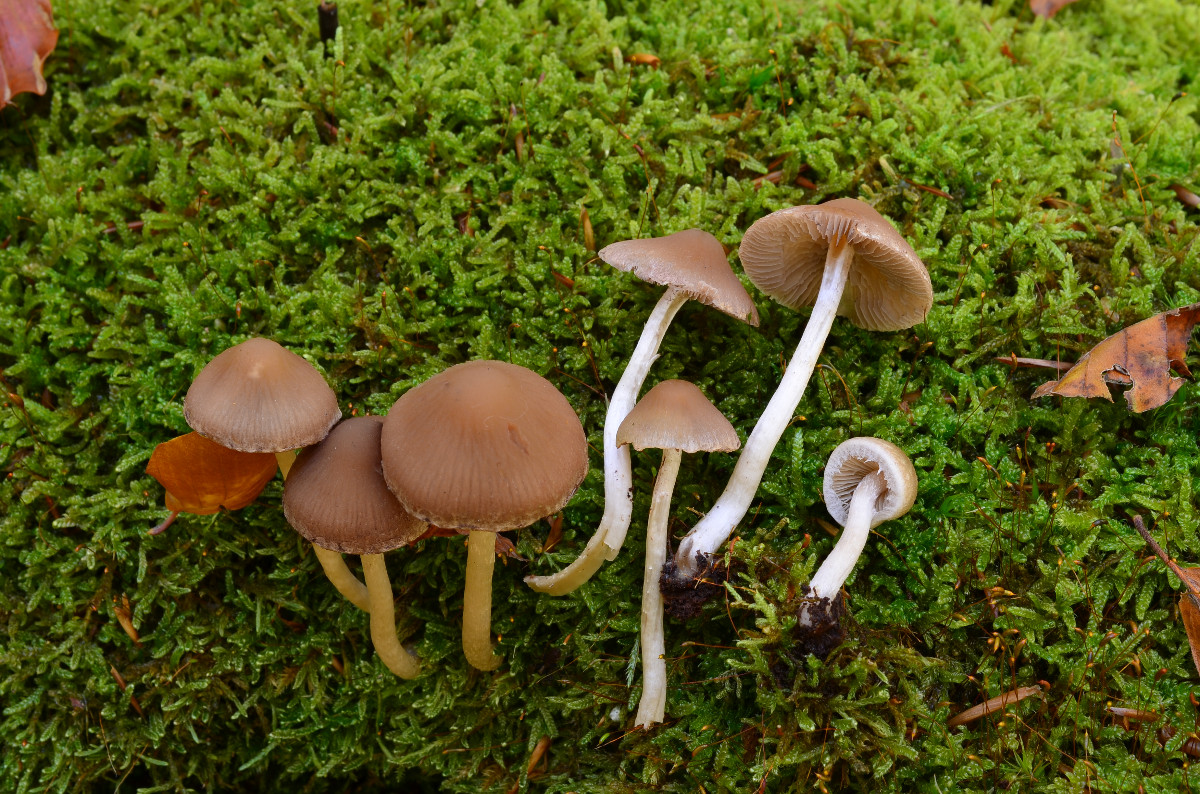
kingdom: Fungi
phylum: Basidiomycota
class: Agaricomycetes
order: Agaricales
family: Psathyrellaceae
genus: Psathyrella
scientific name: Psathyrella spintrigeroides
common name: tandet mørkhat
